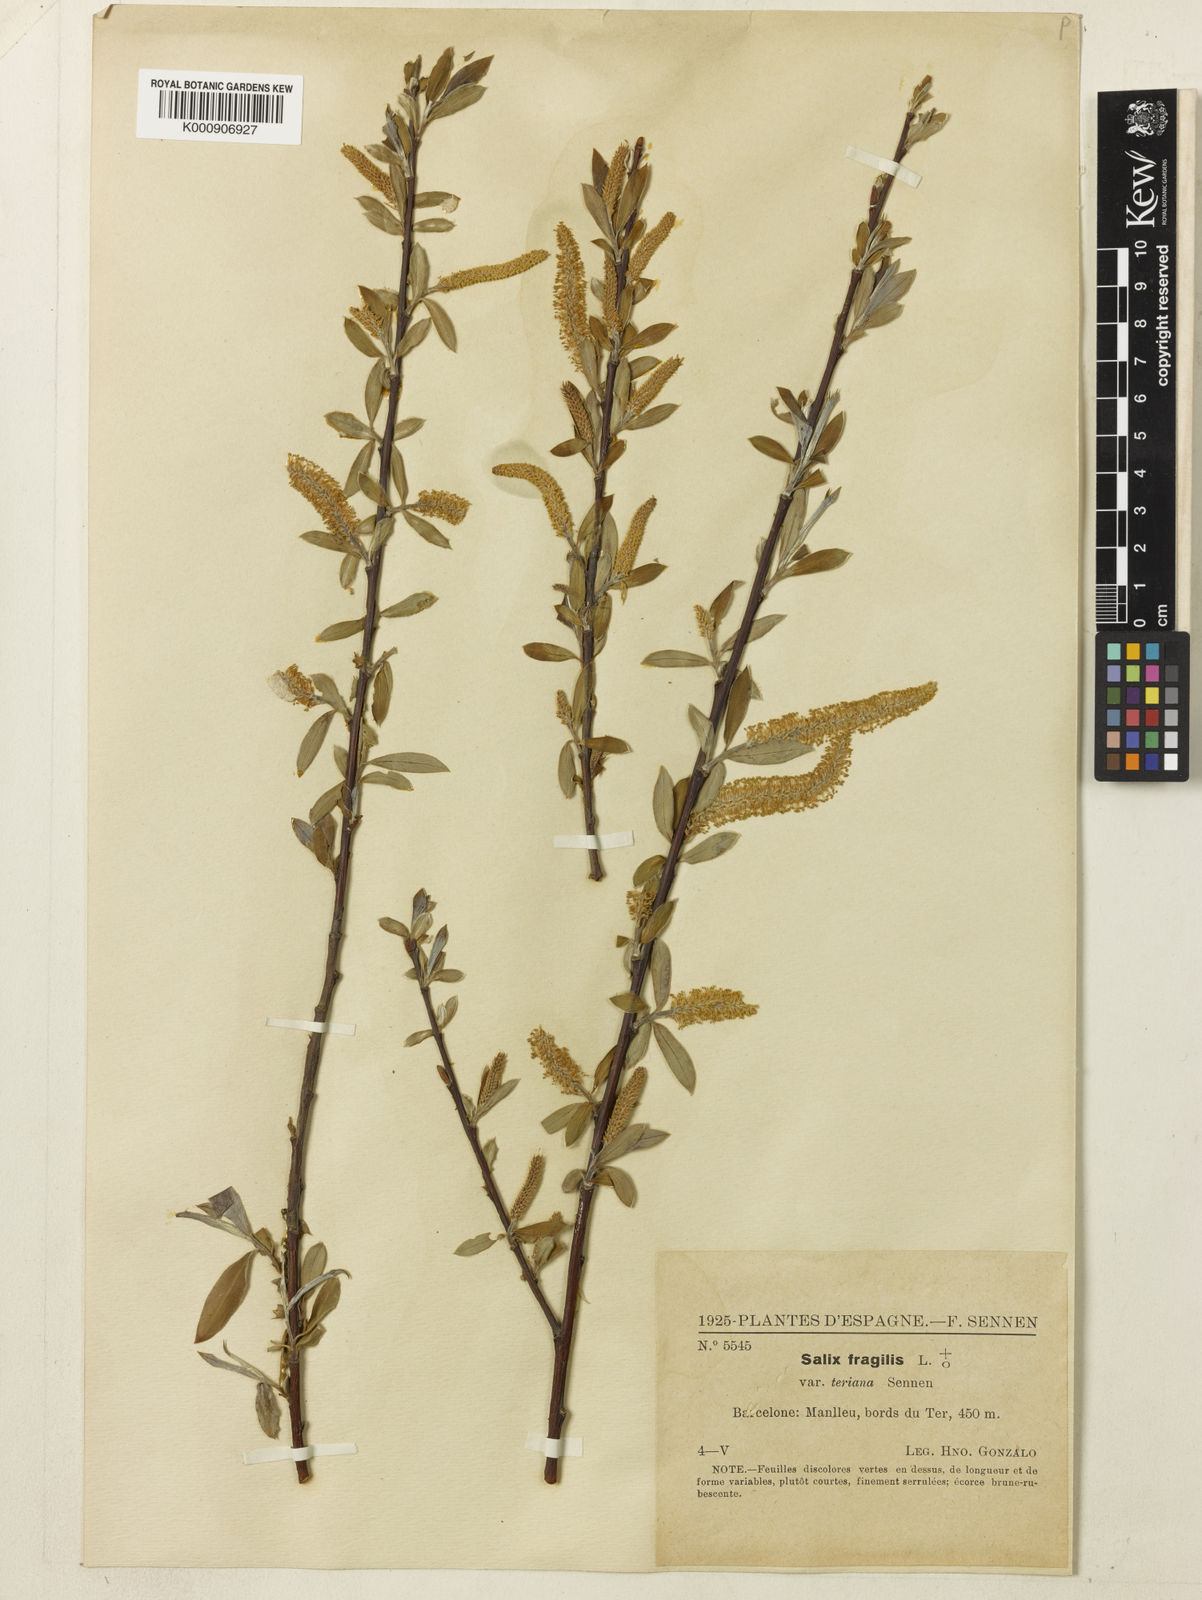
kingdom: Plantae
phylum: Tracheophyta
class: Magnoliopsida
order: Malpighiales
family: Salicaceae
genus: Salix
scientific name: Salix alba
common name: White willow
